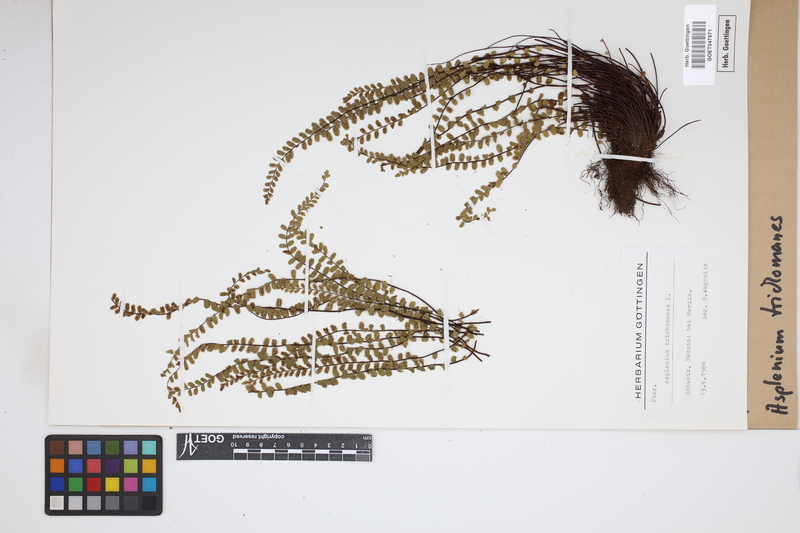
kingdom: Plantae
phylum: Tracheophyta
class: Polypodiopsida
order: Polypodiales
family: Aspleniaceae
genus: Asplenium
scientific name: Asplenium trichomanes
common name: Maidenhair spleenwort
